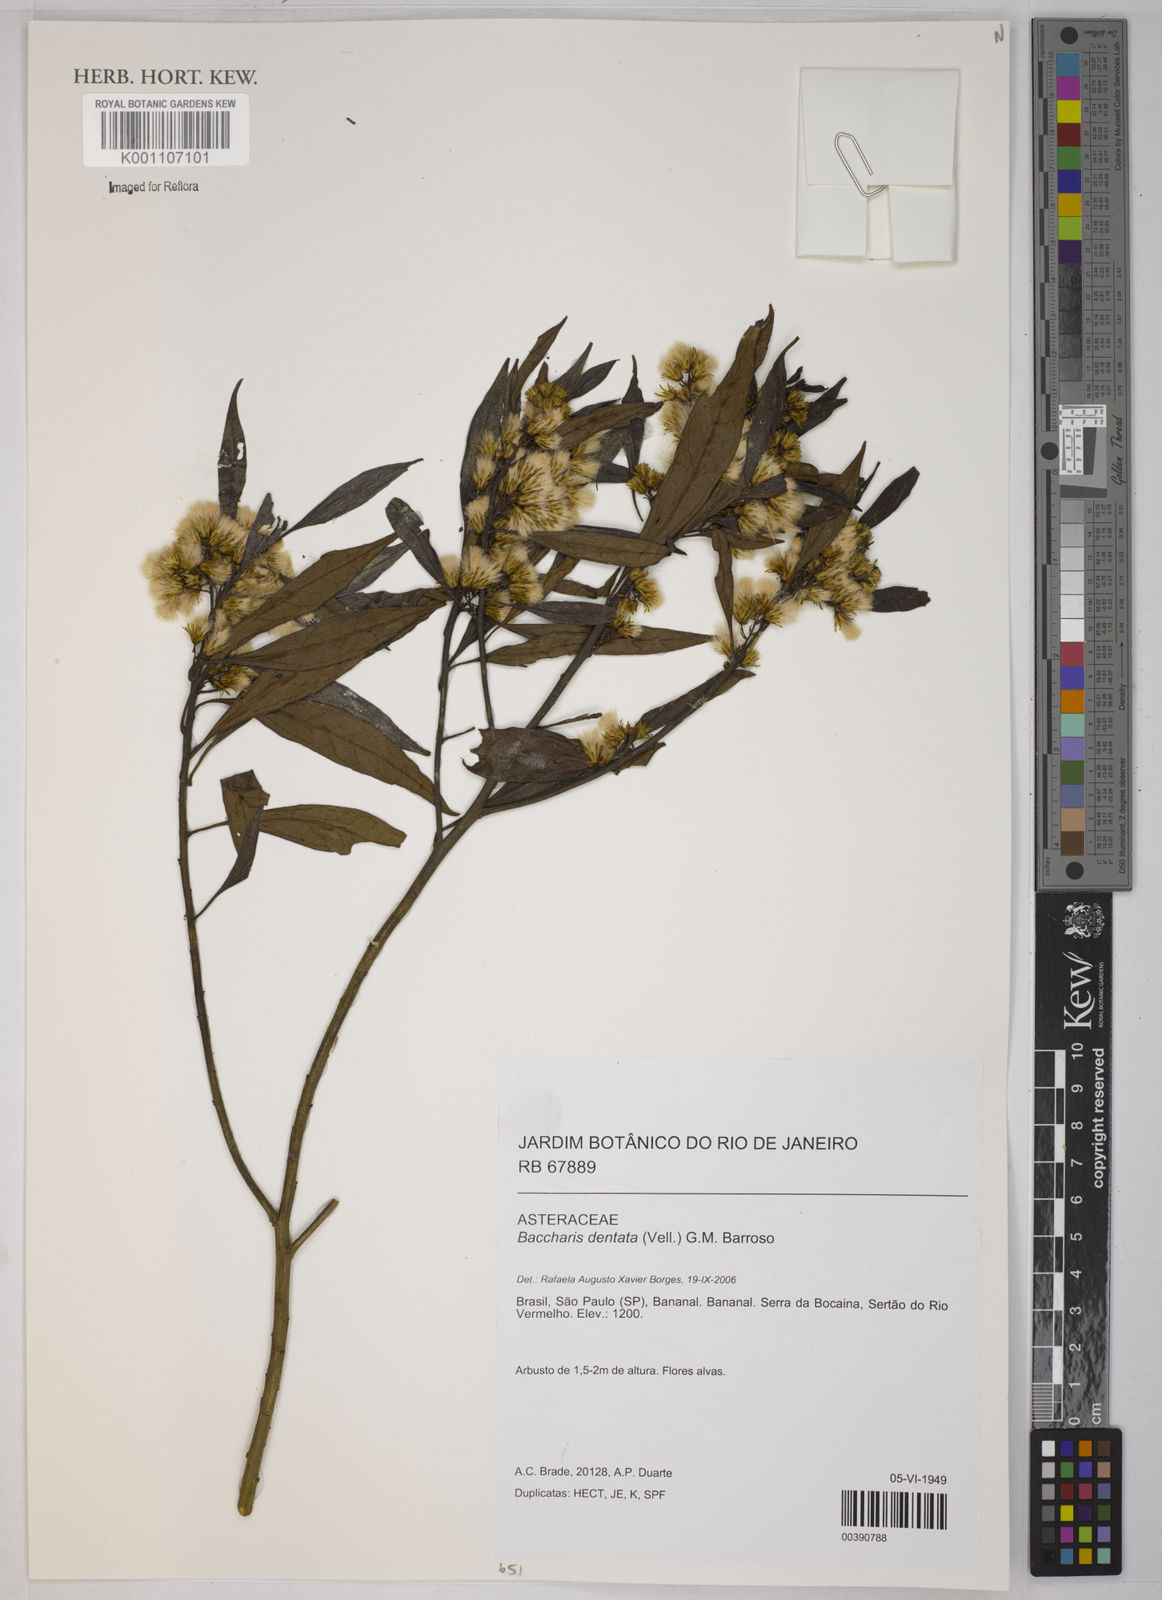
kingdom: Plantae
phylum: Tracheophyta
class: Magnoliopsida
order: Asterales
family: Asteraceae
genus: Baccharis
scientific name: Baccharis dentata
